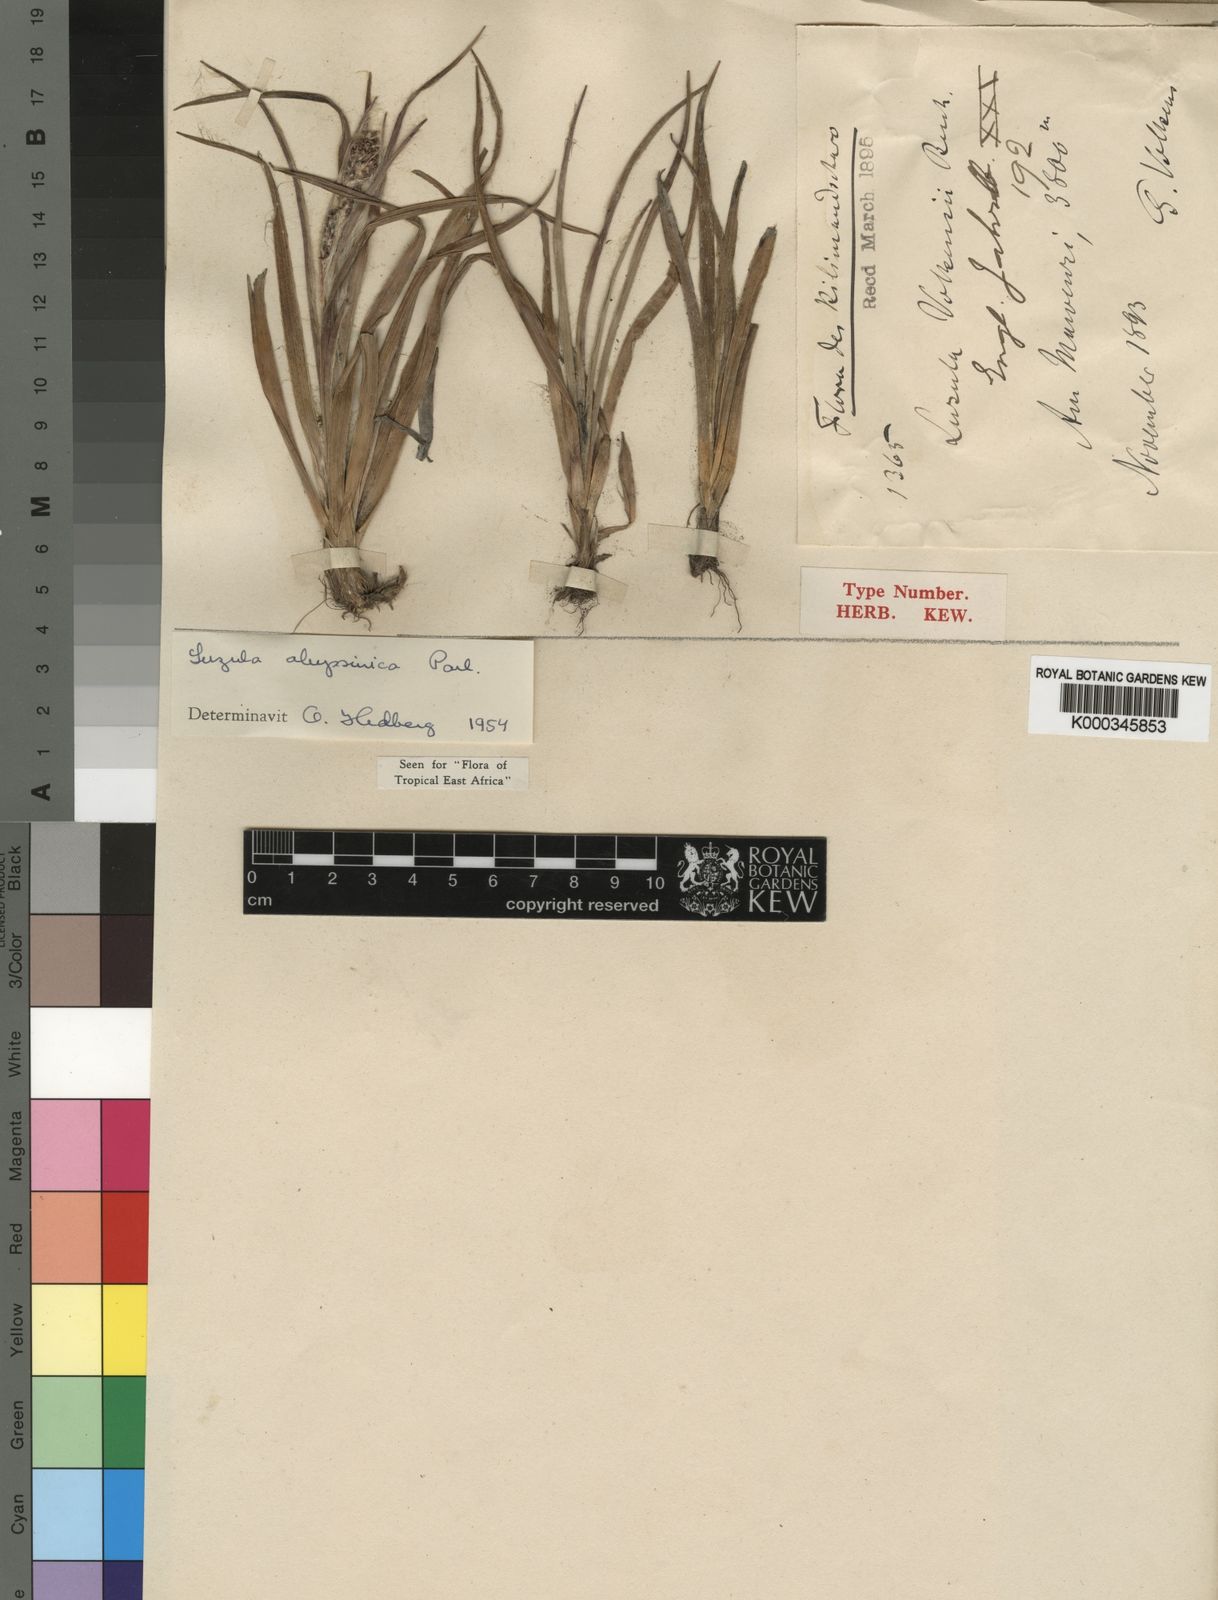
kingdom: Plantae
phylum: Tracheophyta
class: Liliopsida
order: Poales
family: Juncaceae
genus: Luzula
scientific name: Luzula abyssinica
